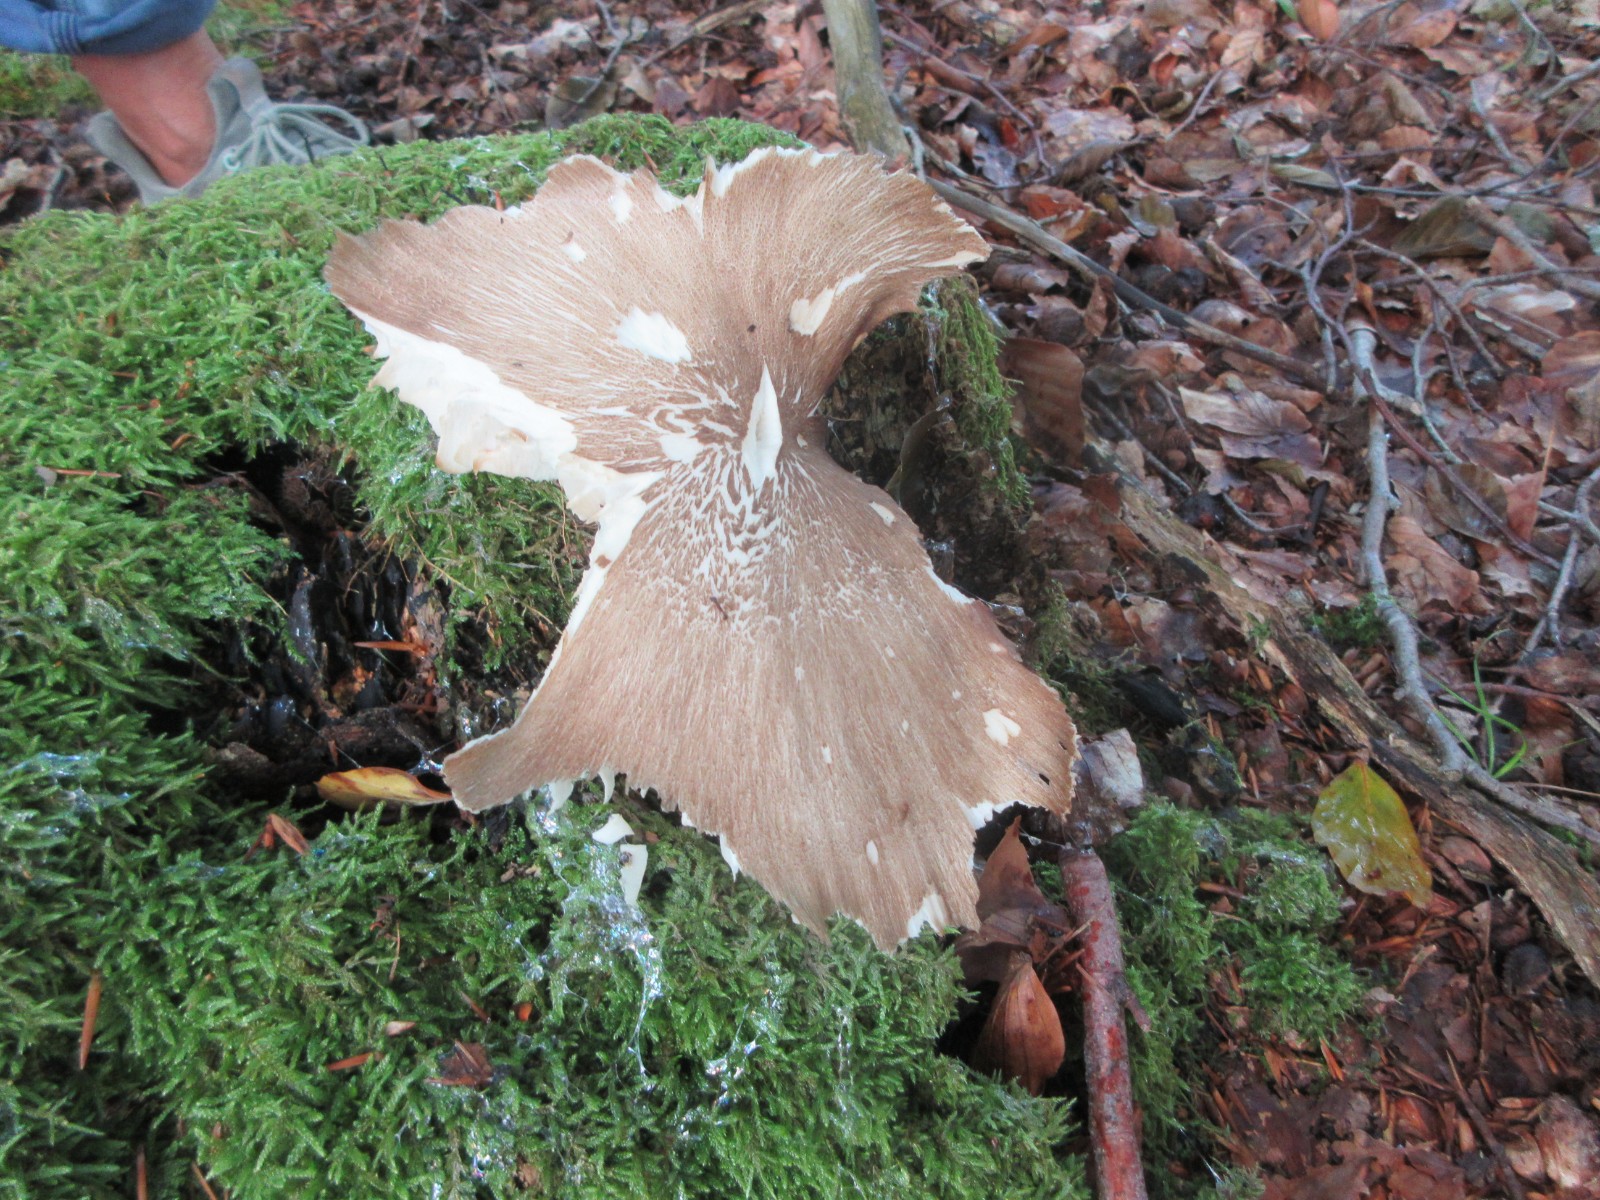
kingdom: Fungi
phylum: Basidiomycota
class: Agaricomycetes
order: Agaricales
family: Tricholomataceae
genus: Megacollybia
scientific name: Megacollybia platyphylla
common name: bredbladet væbnerhat
